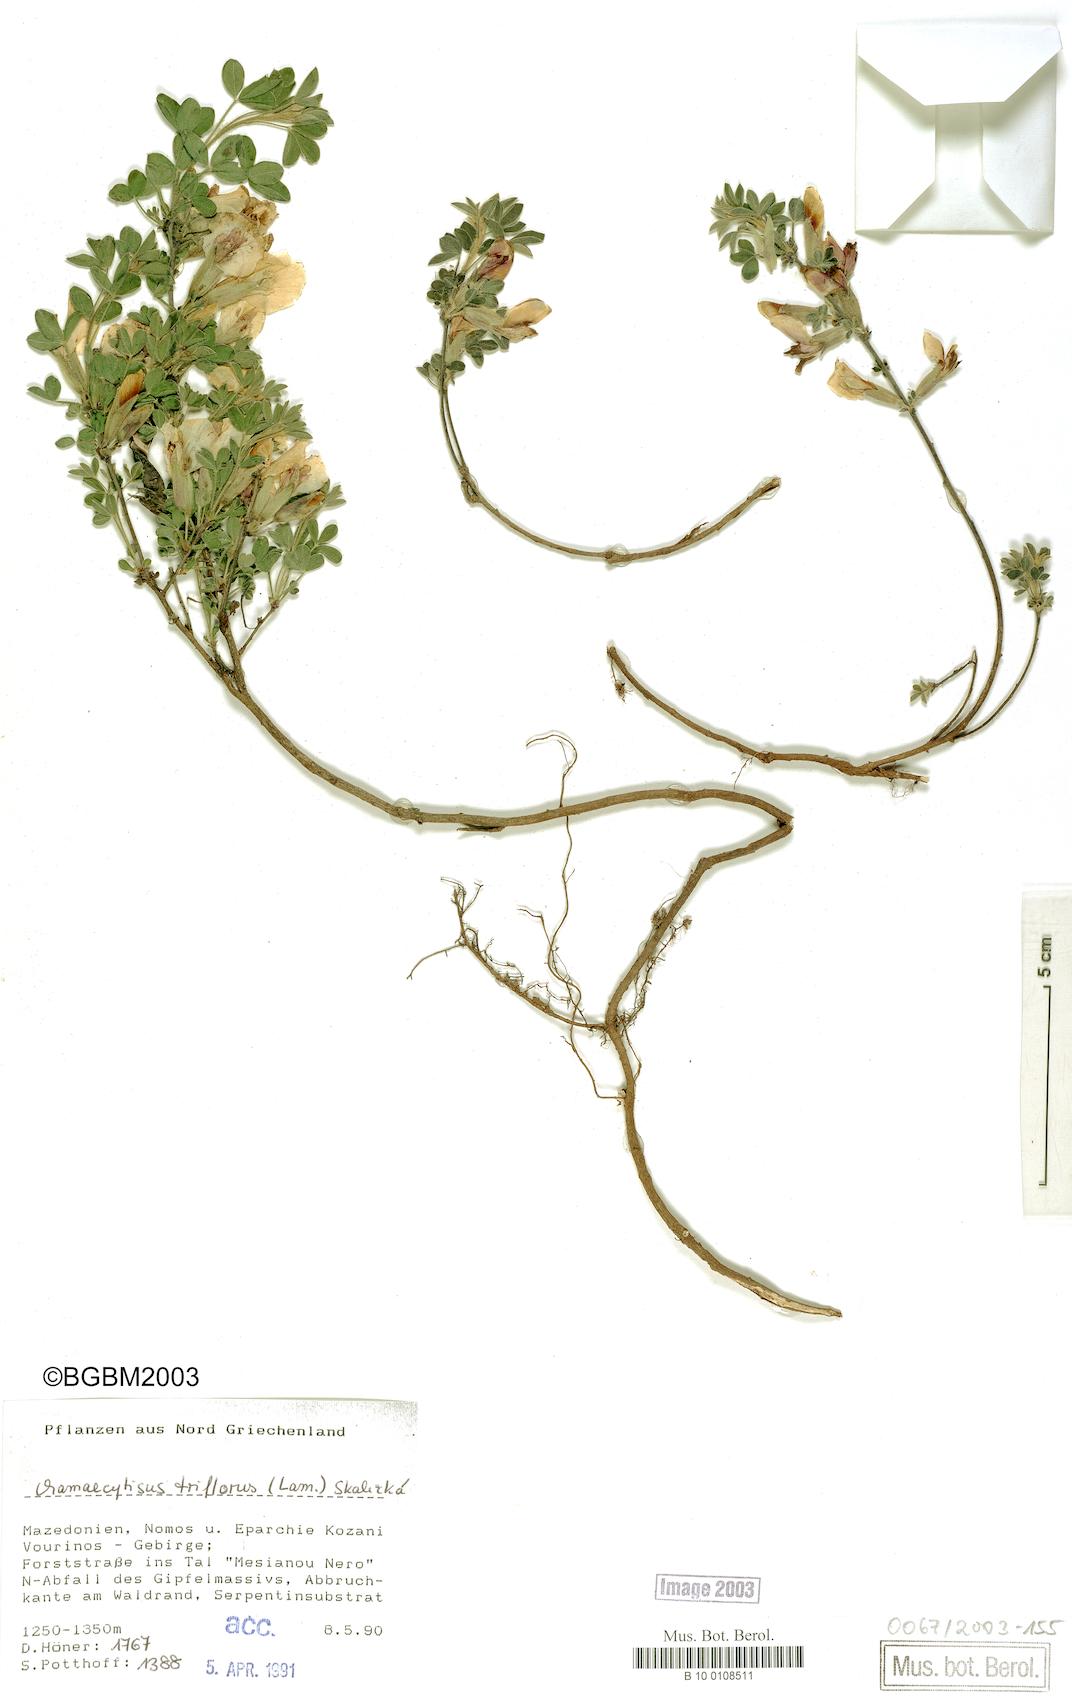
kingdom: Plantae
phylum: Tracheophyta
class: Magnoliopsida
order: Fabales
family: Fabaceae
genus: Chamaecytisus
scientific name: Chamaecytisus triflorus
